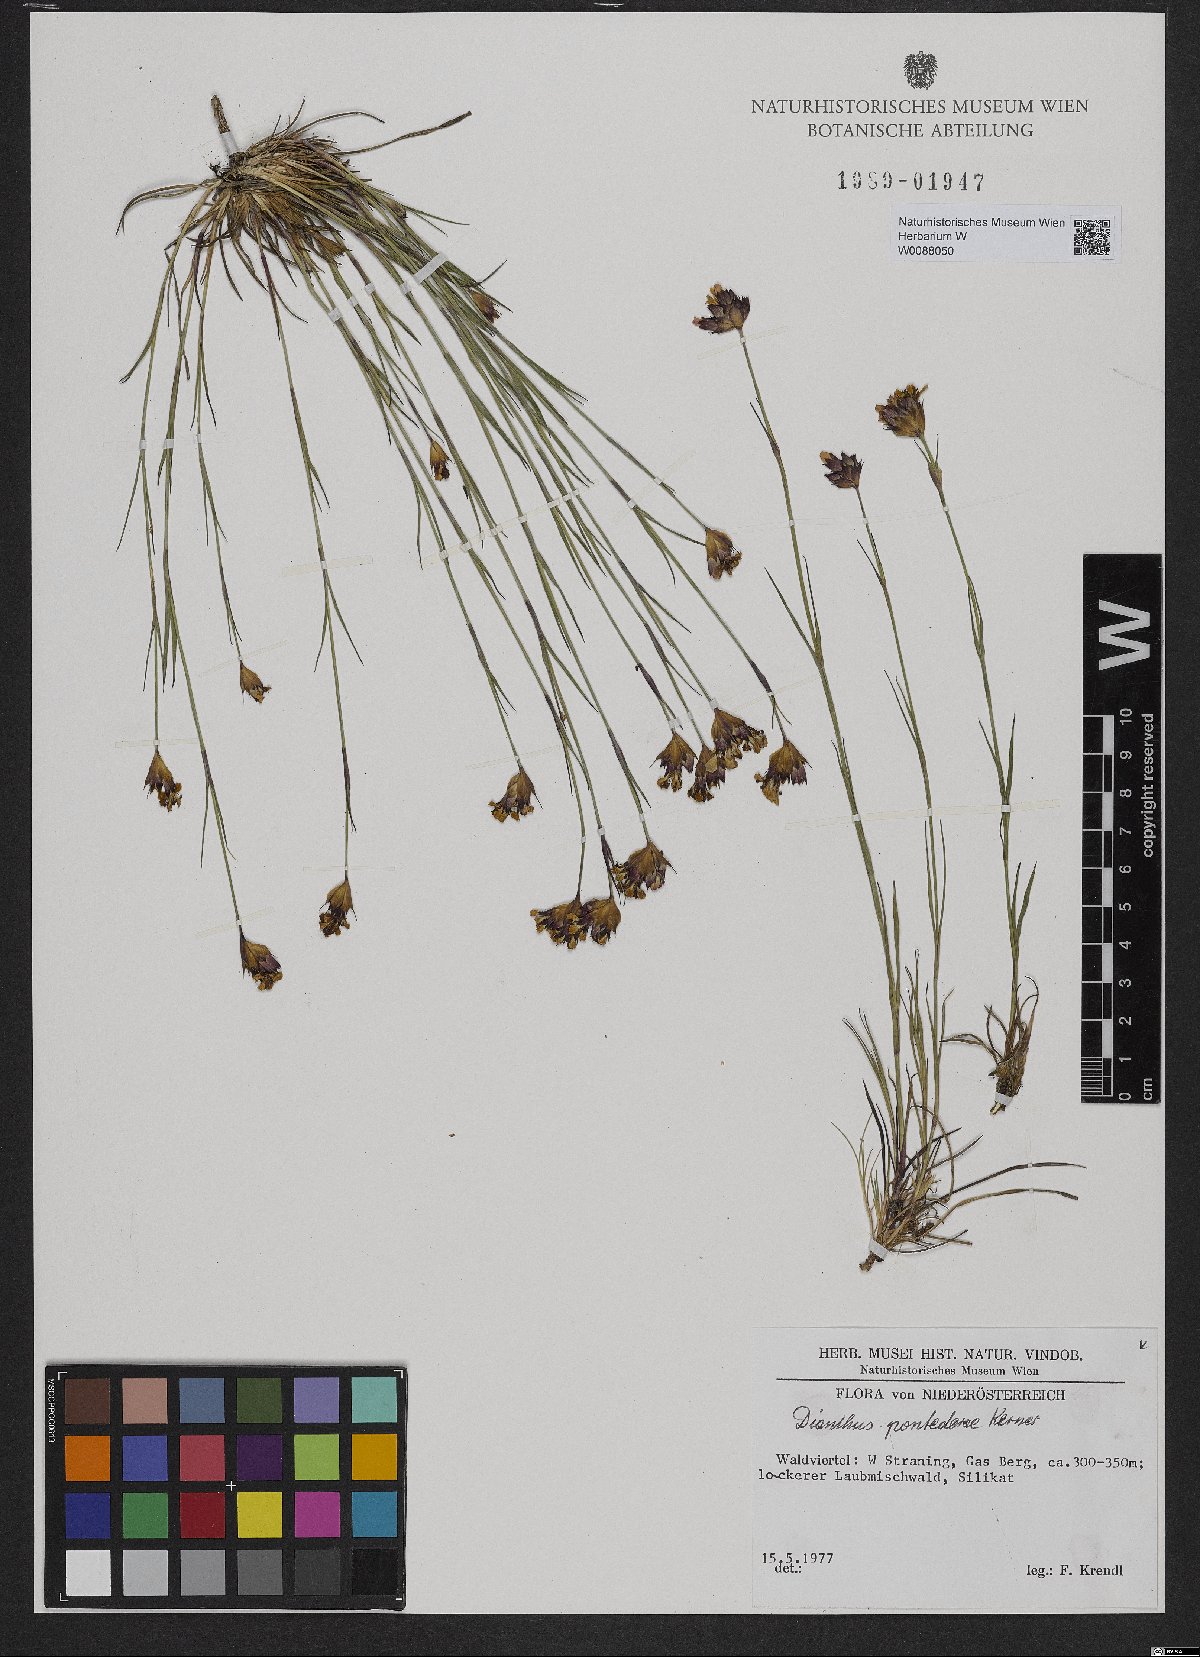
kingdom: Plantae
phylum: Tracheophyta
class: Magnoliopsida
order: Caryophyllales
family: Caryophyllaceae
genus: Dianthus
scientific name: Dianthus pontederae
